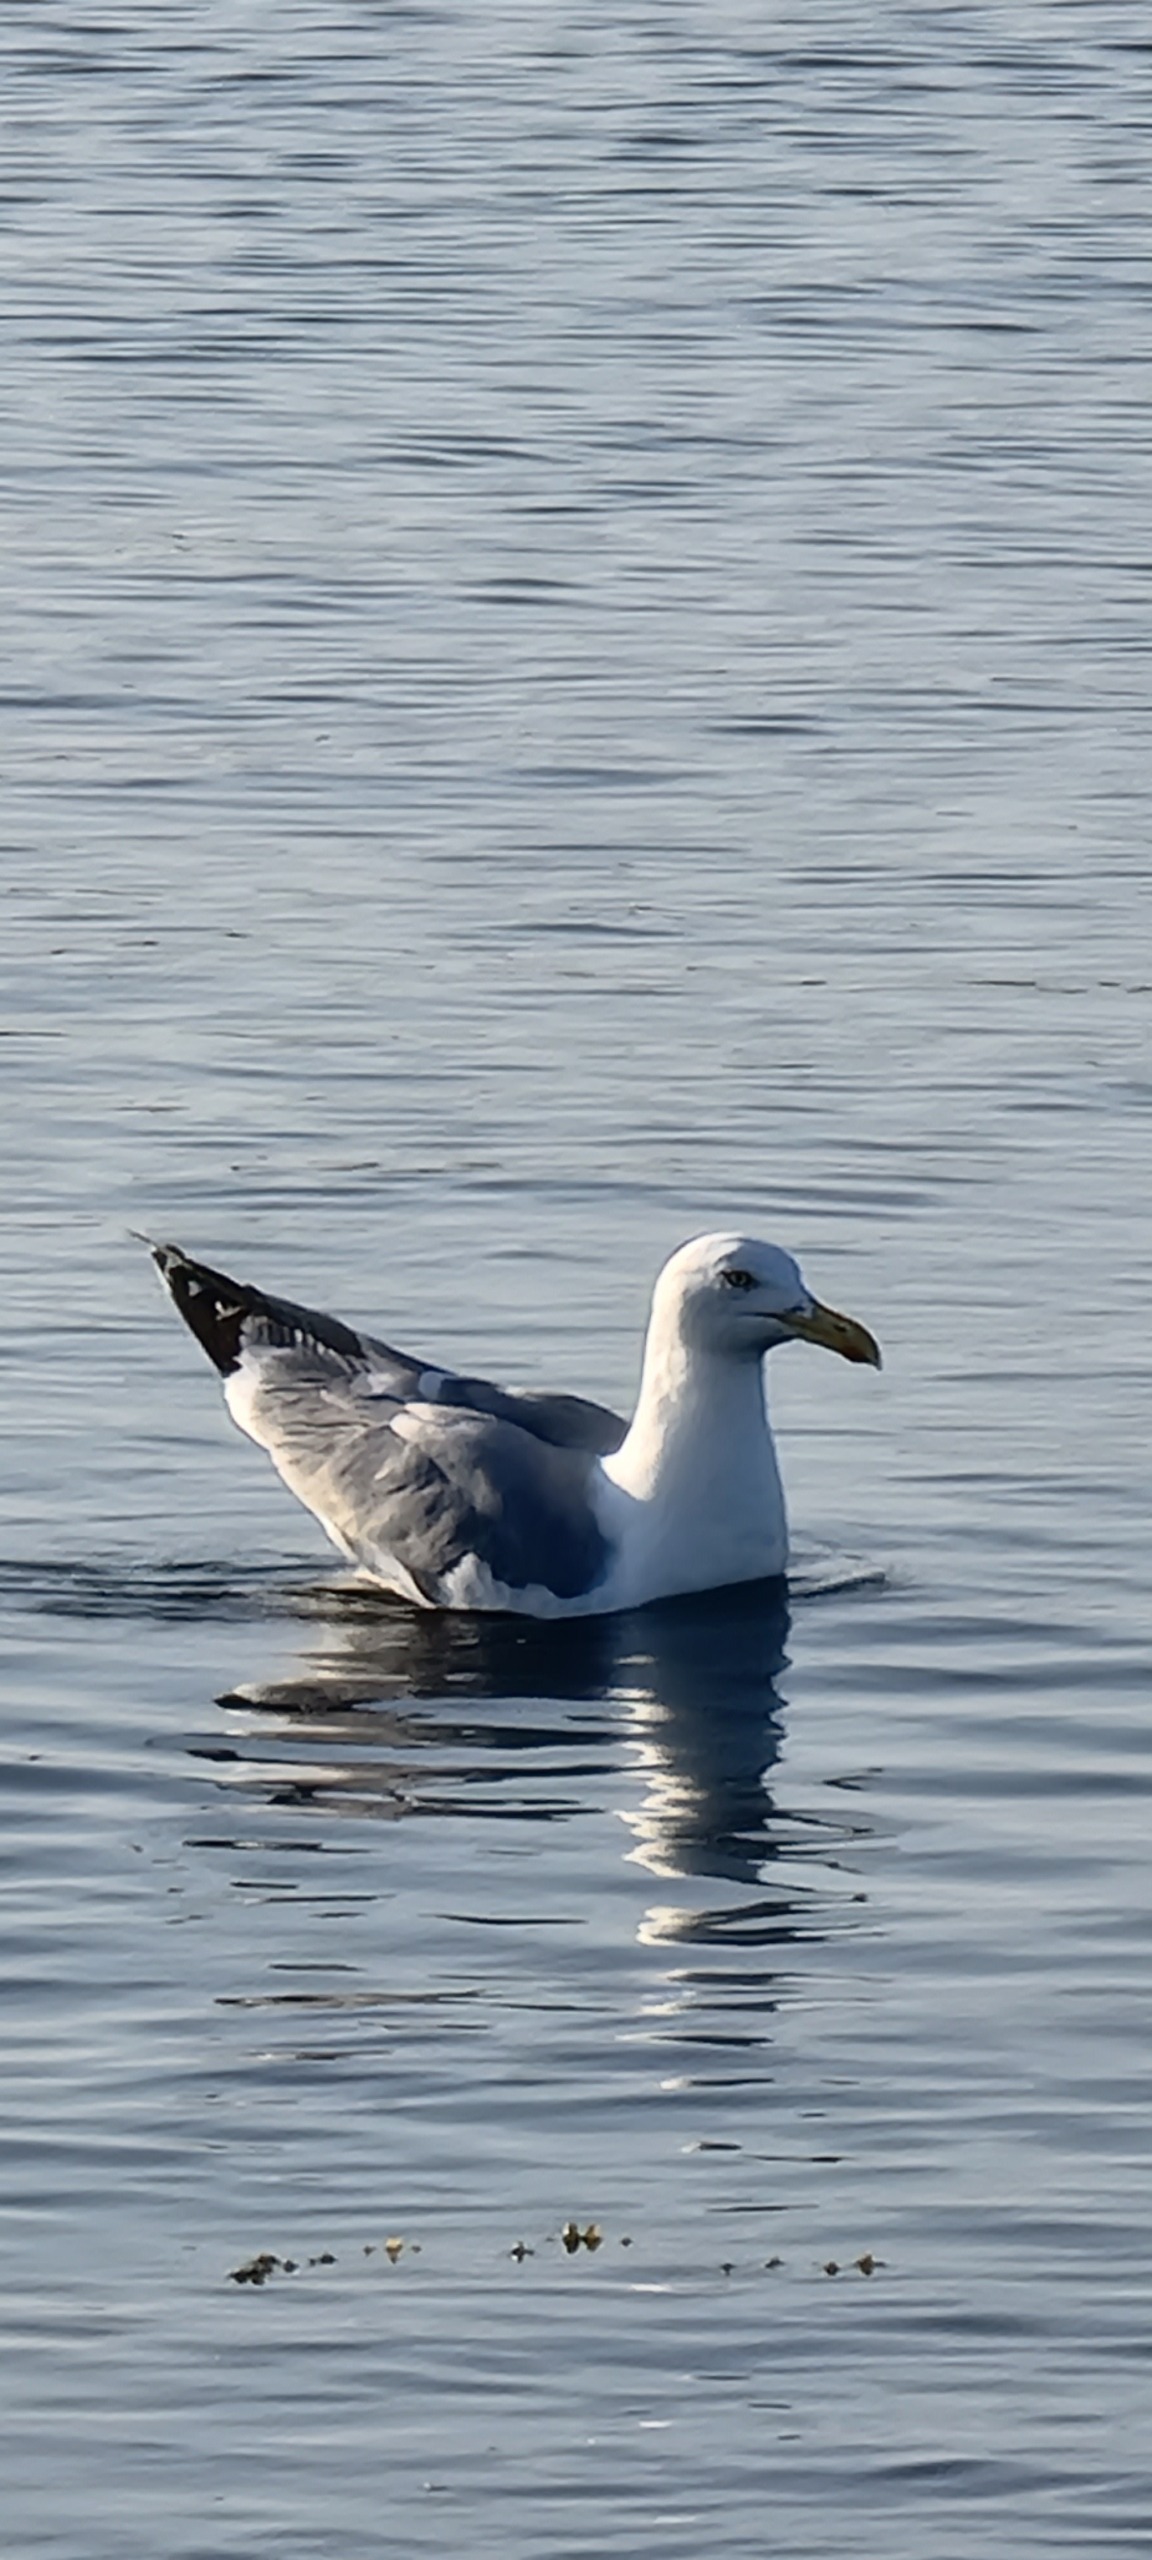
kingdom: Animalia
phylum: Chordata
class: Aves
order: Charadriiformes
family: Laridae
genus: Larus
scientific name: Larus argentatus
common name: Sølvmåge
